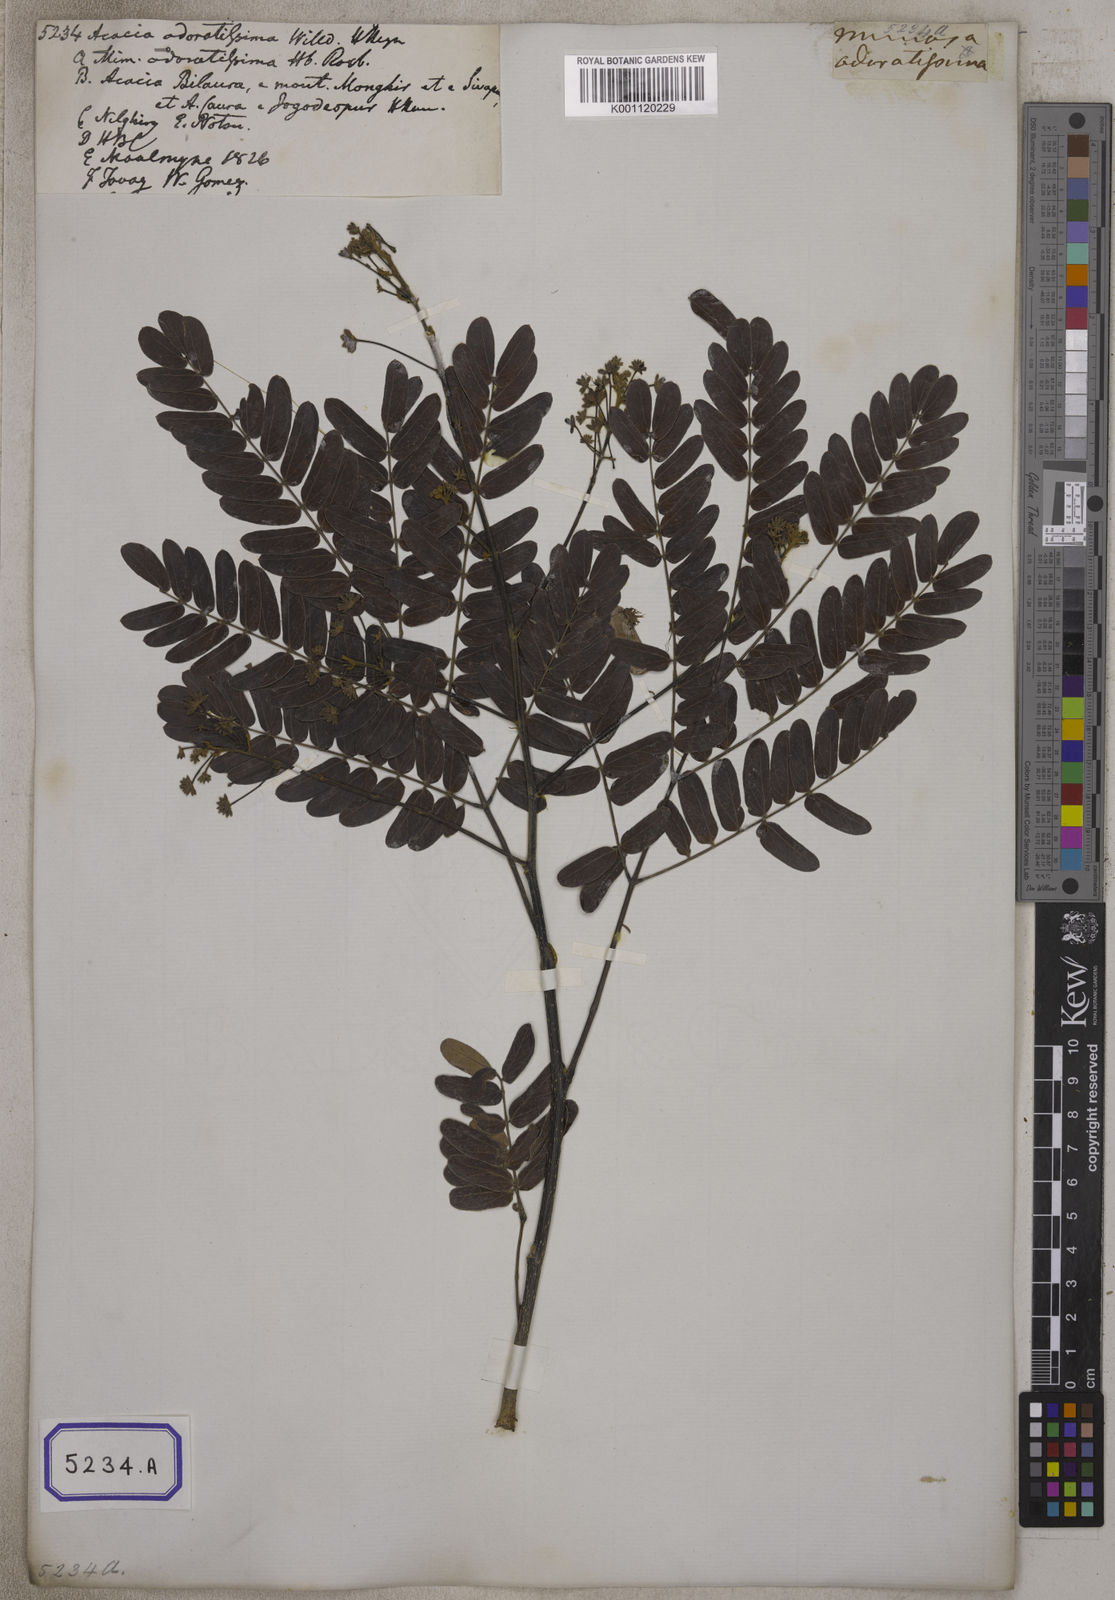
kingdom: Plantae
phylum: Tracheophyta
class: Magnoliopsida
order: Fabales
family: Fabaceae
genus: Albizia
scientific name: Albizia odoratissima
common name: Ceylon rosewood
